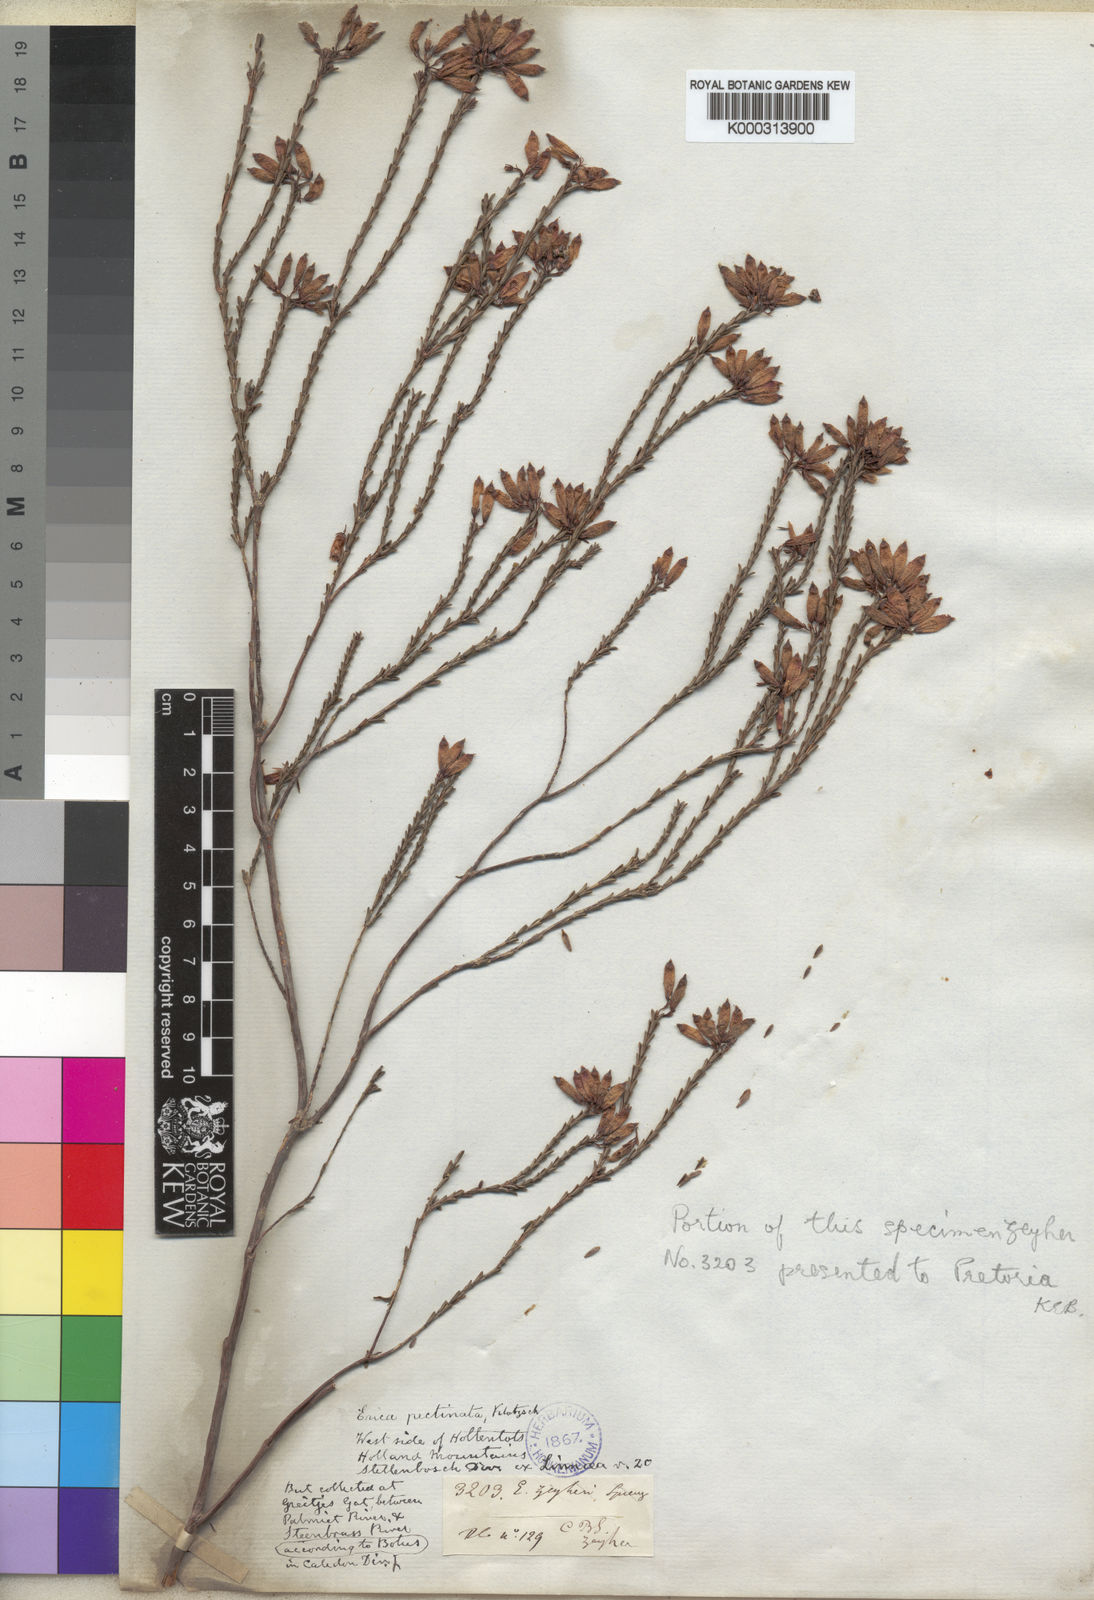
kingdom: Plantae
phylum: Tracheophyta
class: Magnoliopsida
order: Ericales
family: Ericaceae
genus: Erica
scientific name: Erica cristata
